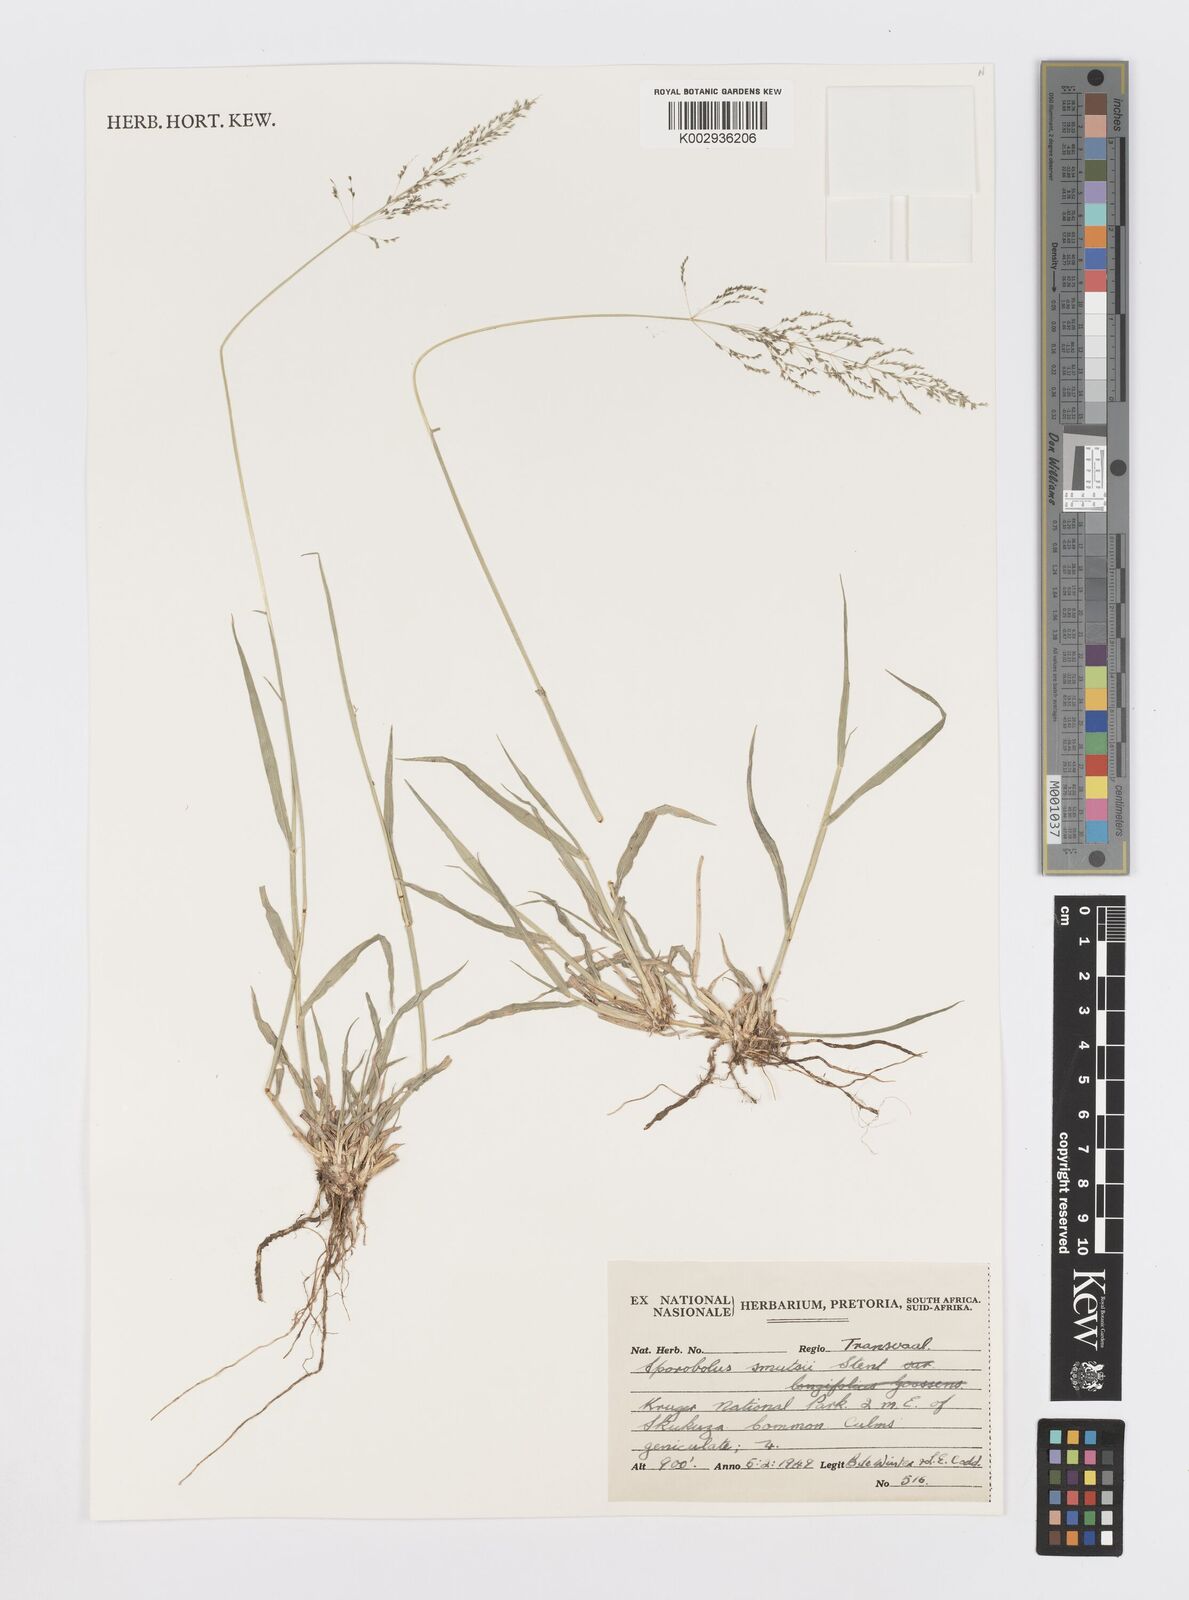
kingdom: Plantae
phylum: Tracheophyta
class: Liliopsida
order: Poales
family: Poaceae
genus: Sporobolus
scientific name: Sporobolus ioclados
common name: Pan dropseed
